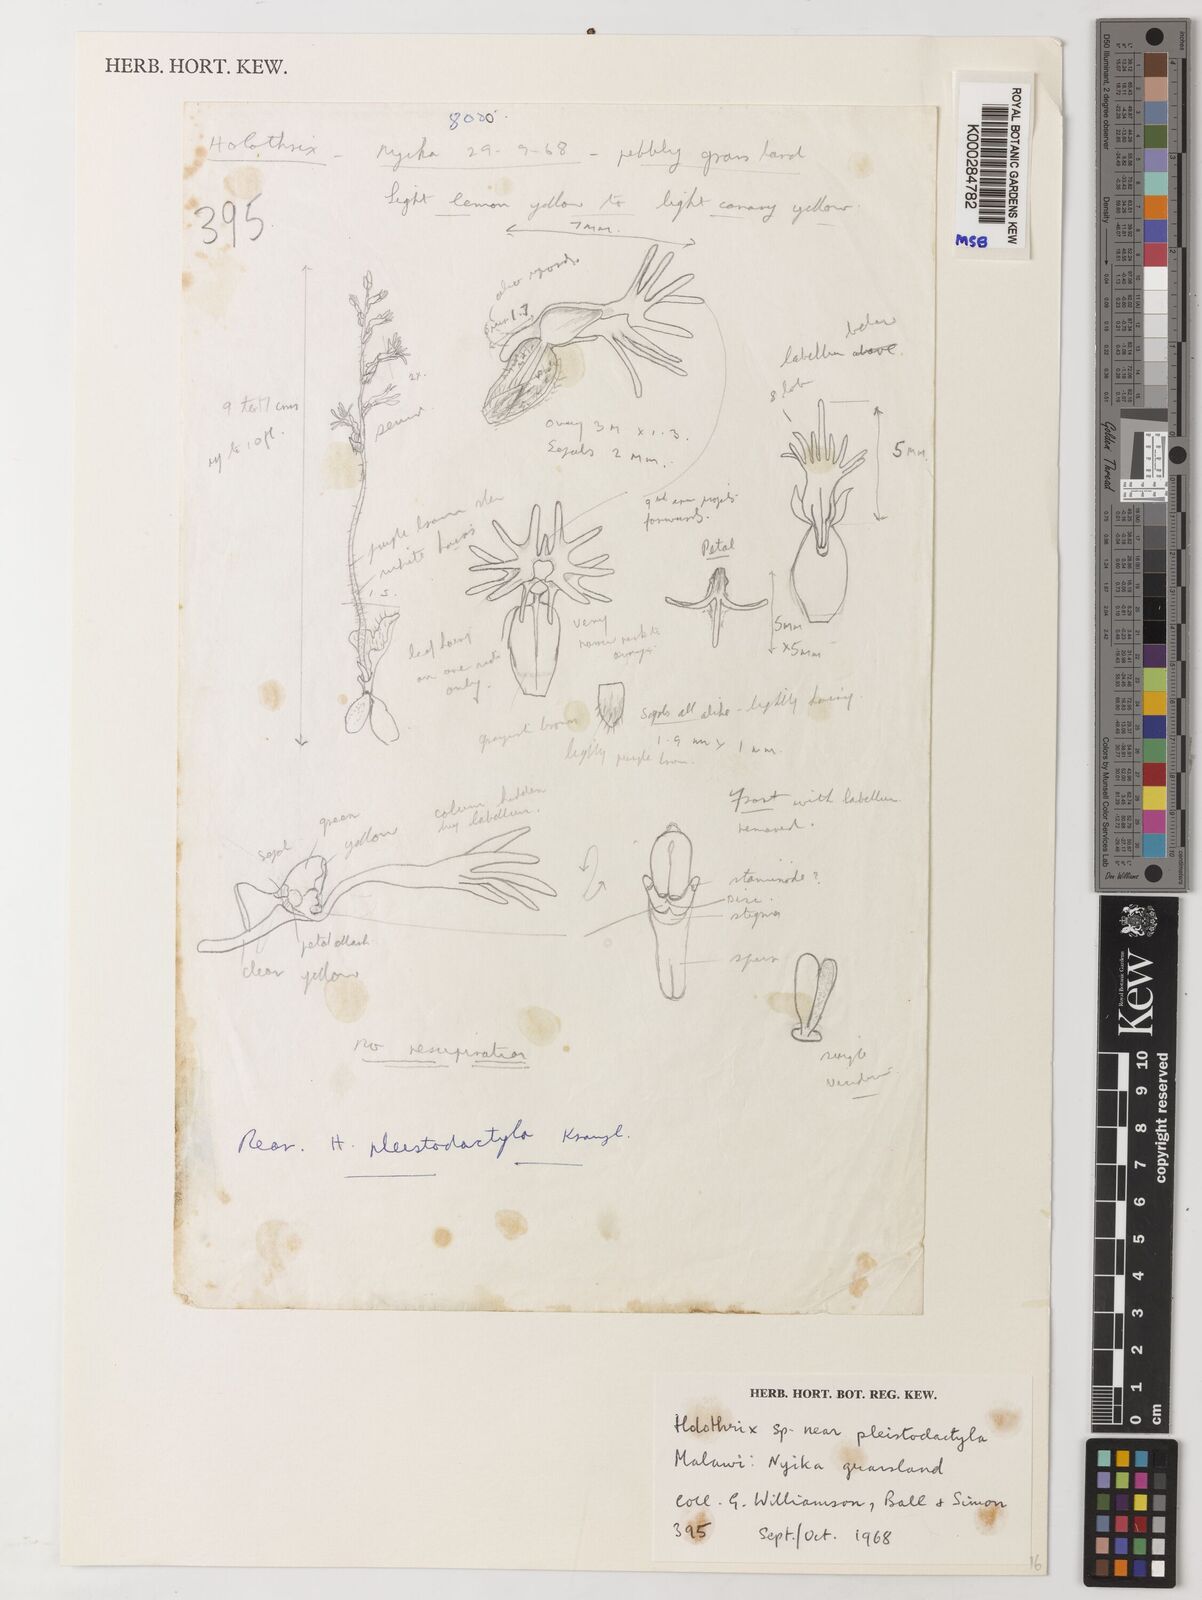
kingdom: Plantae
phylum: Tracheophyta
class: Liliopsida
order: Asparagales
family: Orchidaceae
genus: Holothrix
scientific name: Holothrix pleistodactyla
